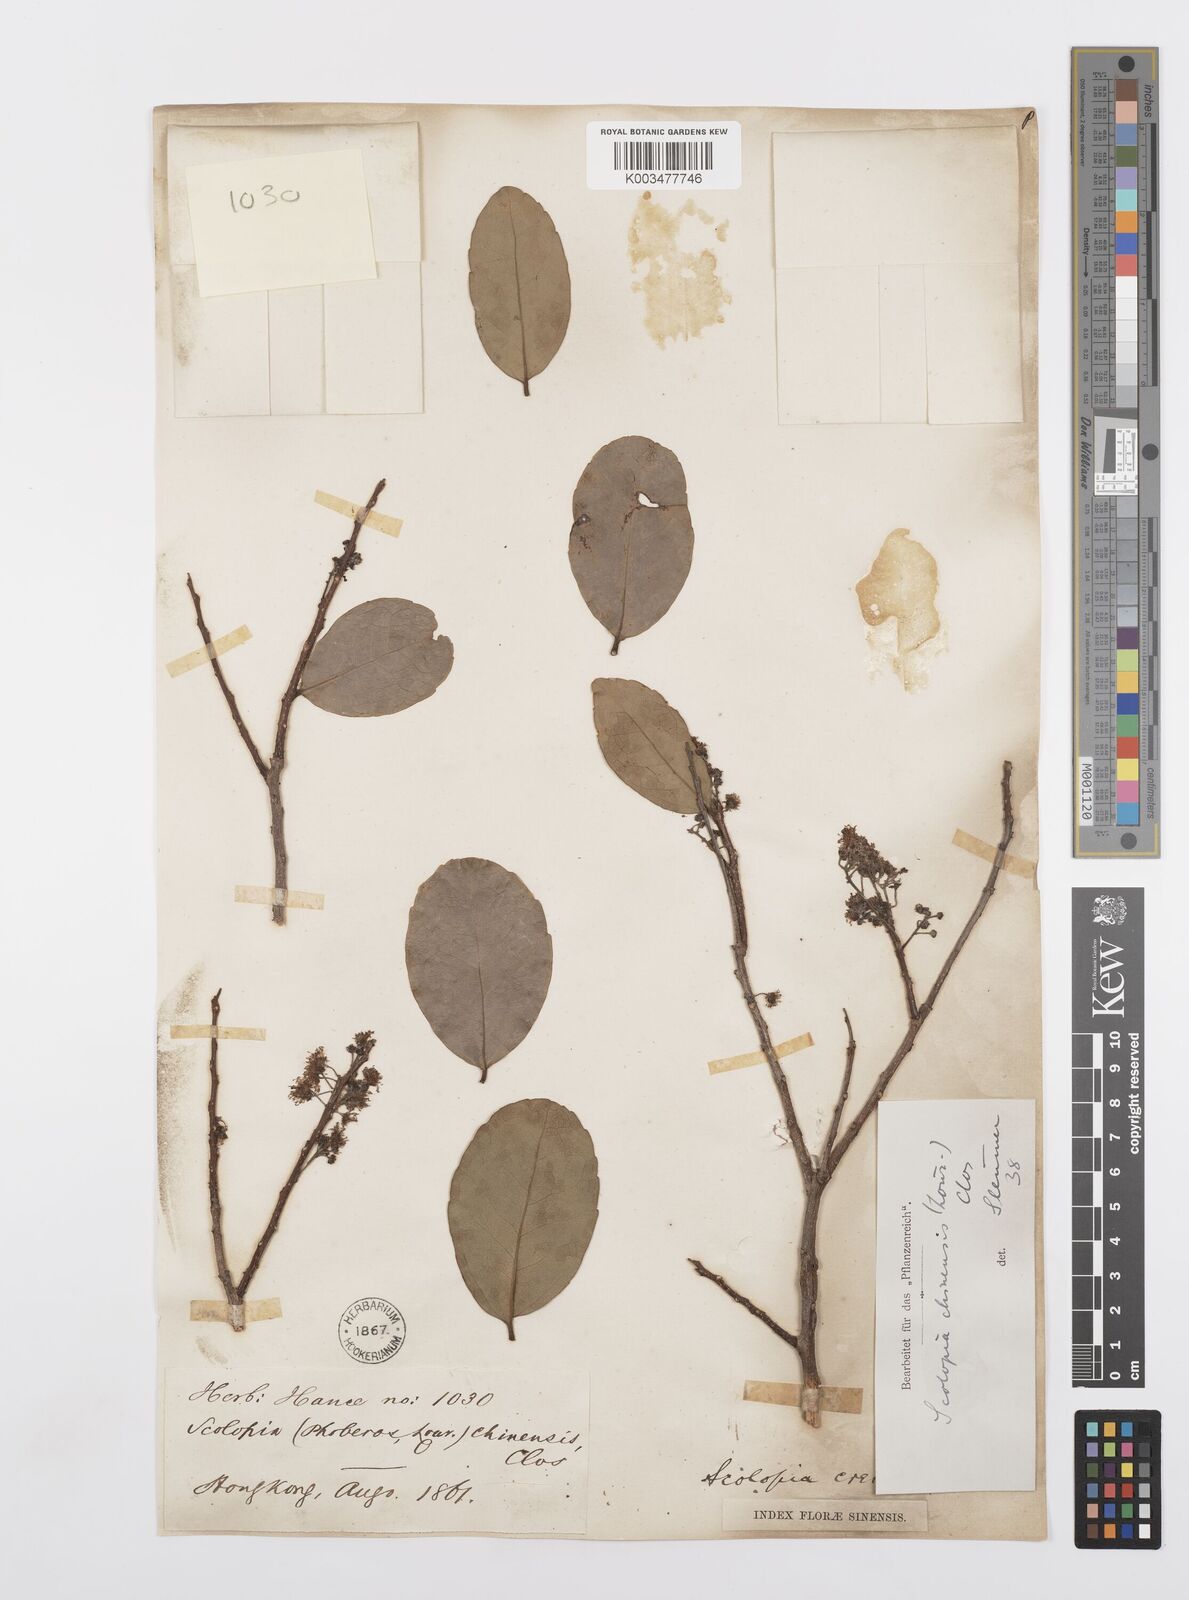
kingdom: Plantae
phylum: Tracheophyta
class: Magnoliopsida
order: Malpighiales
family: Salicaceae
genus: Scolopia
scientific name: Scolopia chinensis
